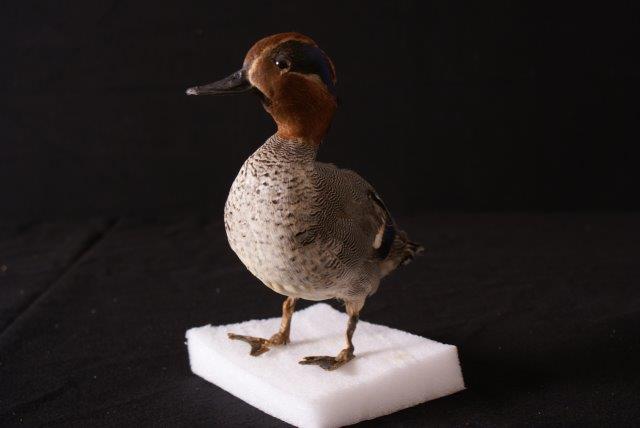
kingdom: Animalia
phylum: Chordata
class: Aves
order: Anseriformes
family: Anatidae
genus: Anas
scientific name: Anas crecca
